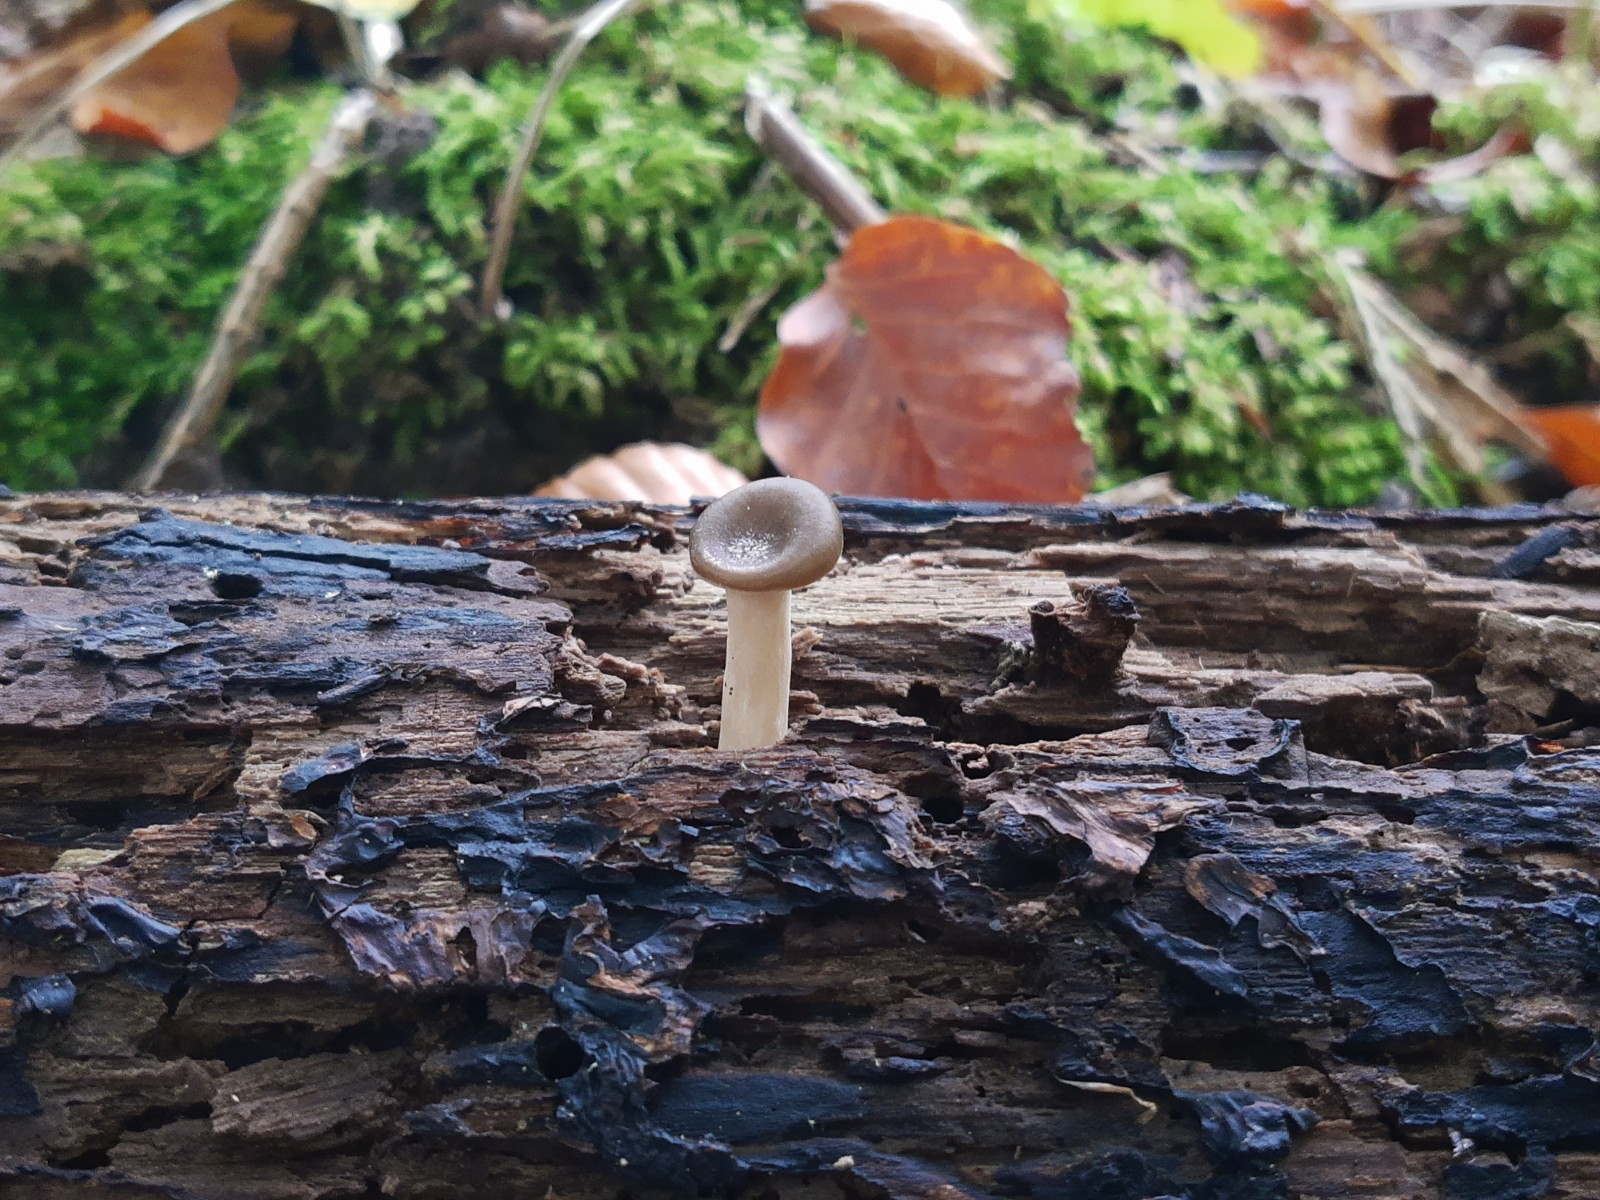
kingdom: Fungi
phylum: Basidiomycota
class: Agaricomycetes
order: Polyporales
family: Polyporaceae
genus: Picipes
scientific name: Picipes badius
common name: kastaniebrun stilkporesvamp
